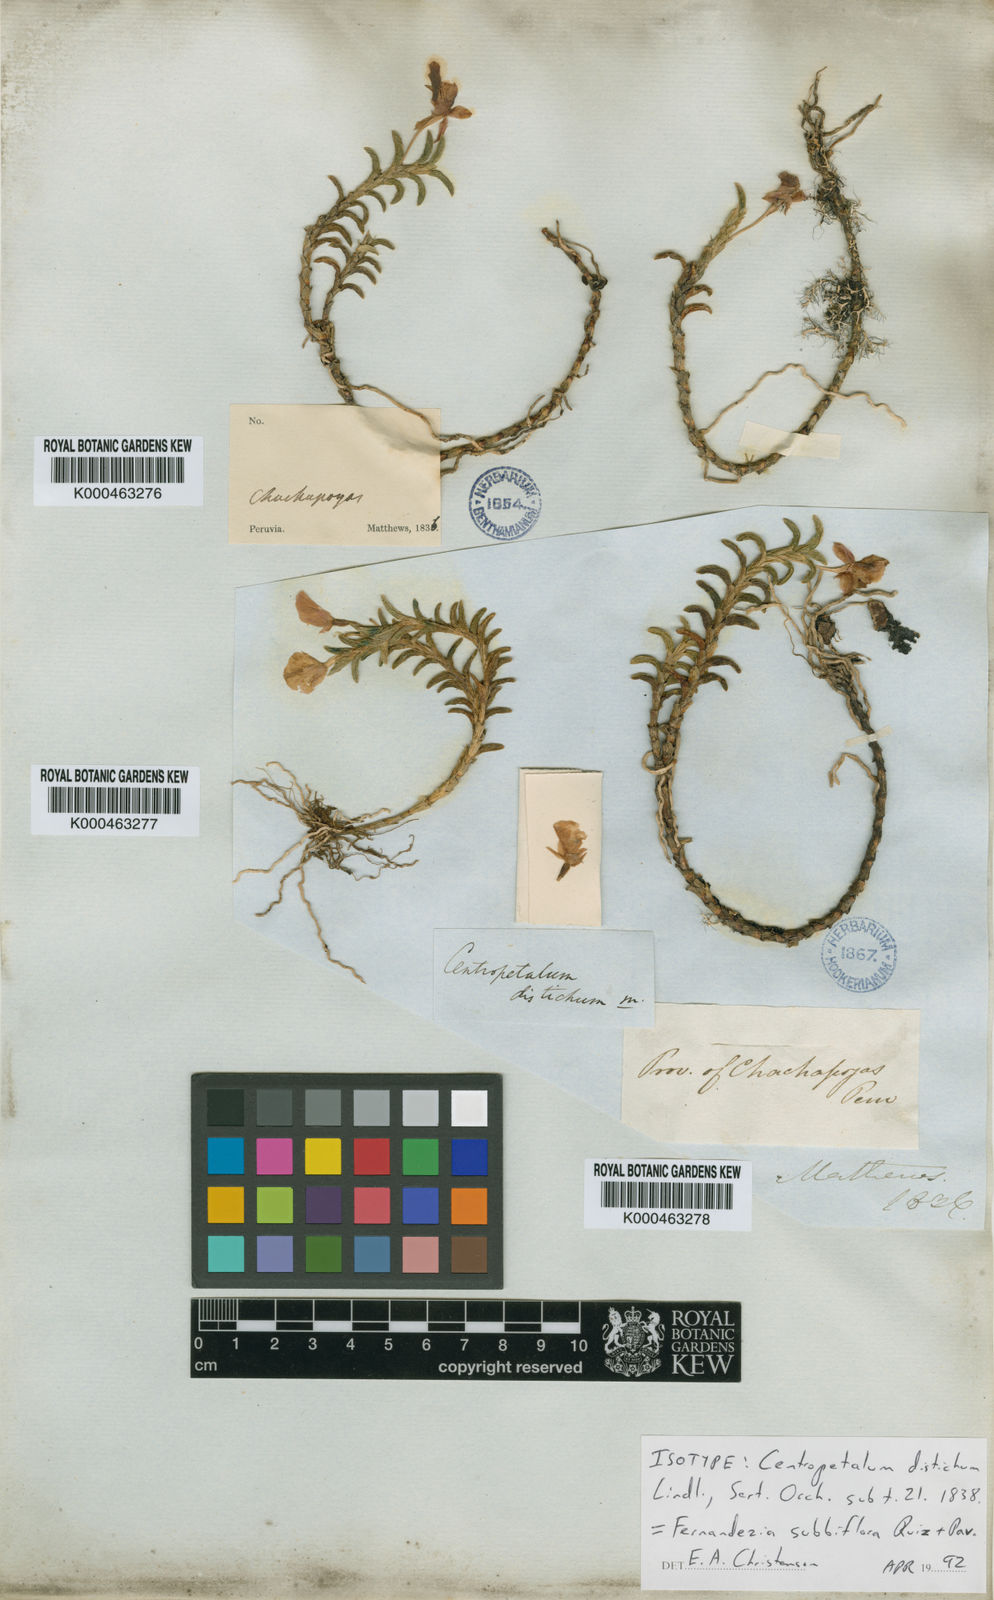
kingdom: Plantae
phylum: Tracheophyta
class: Liliopsida
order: Asparagales
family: Orchidaceae
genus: Fernandezia
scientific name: Fernandezia
